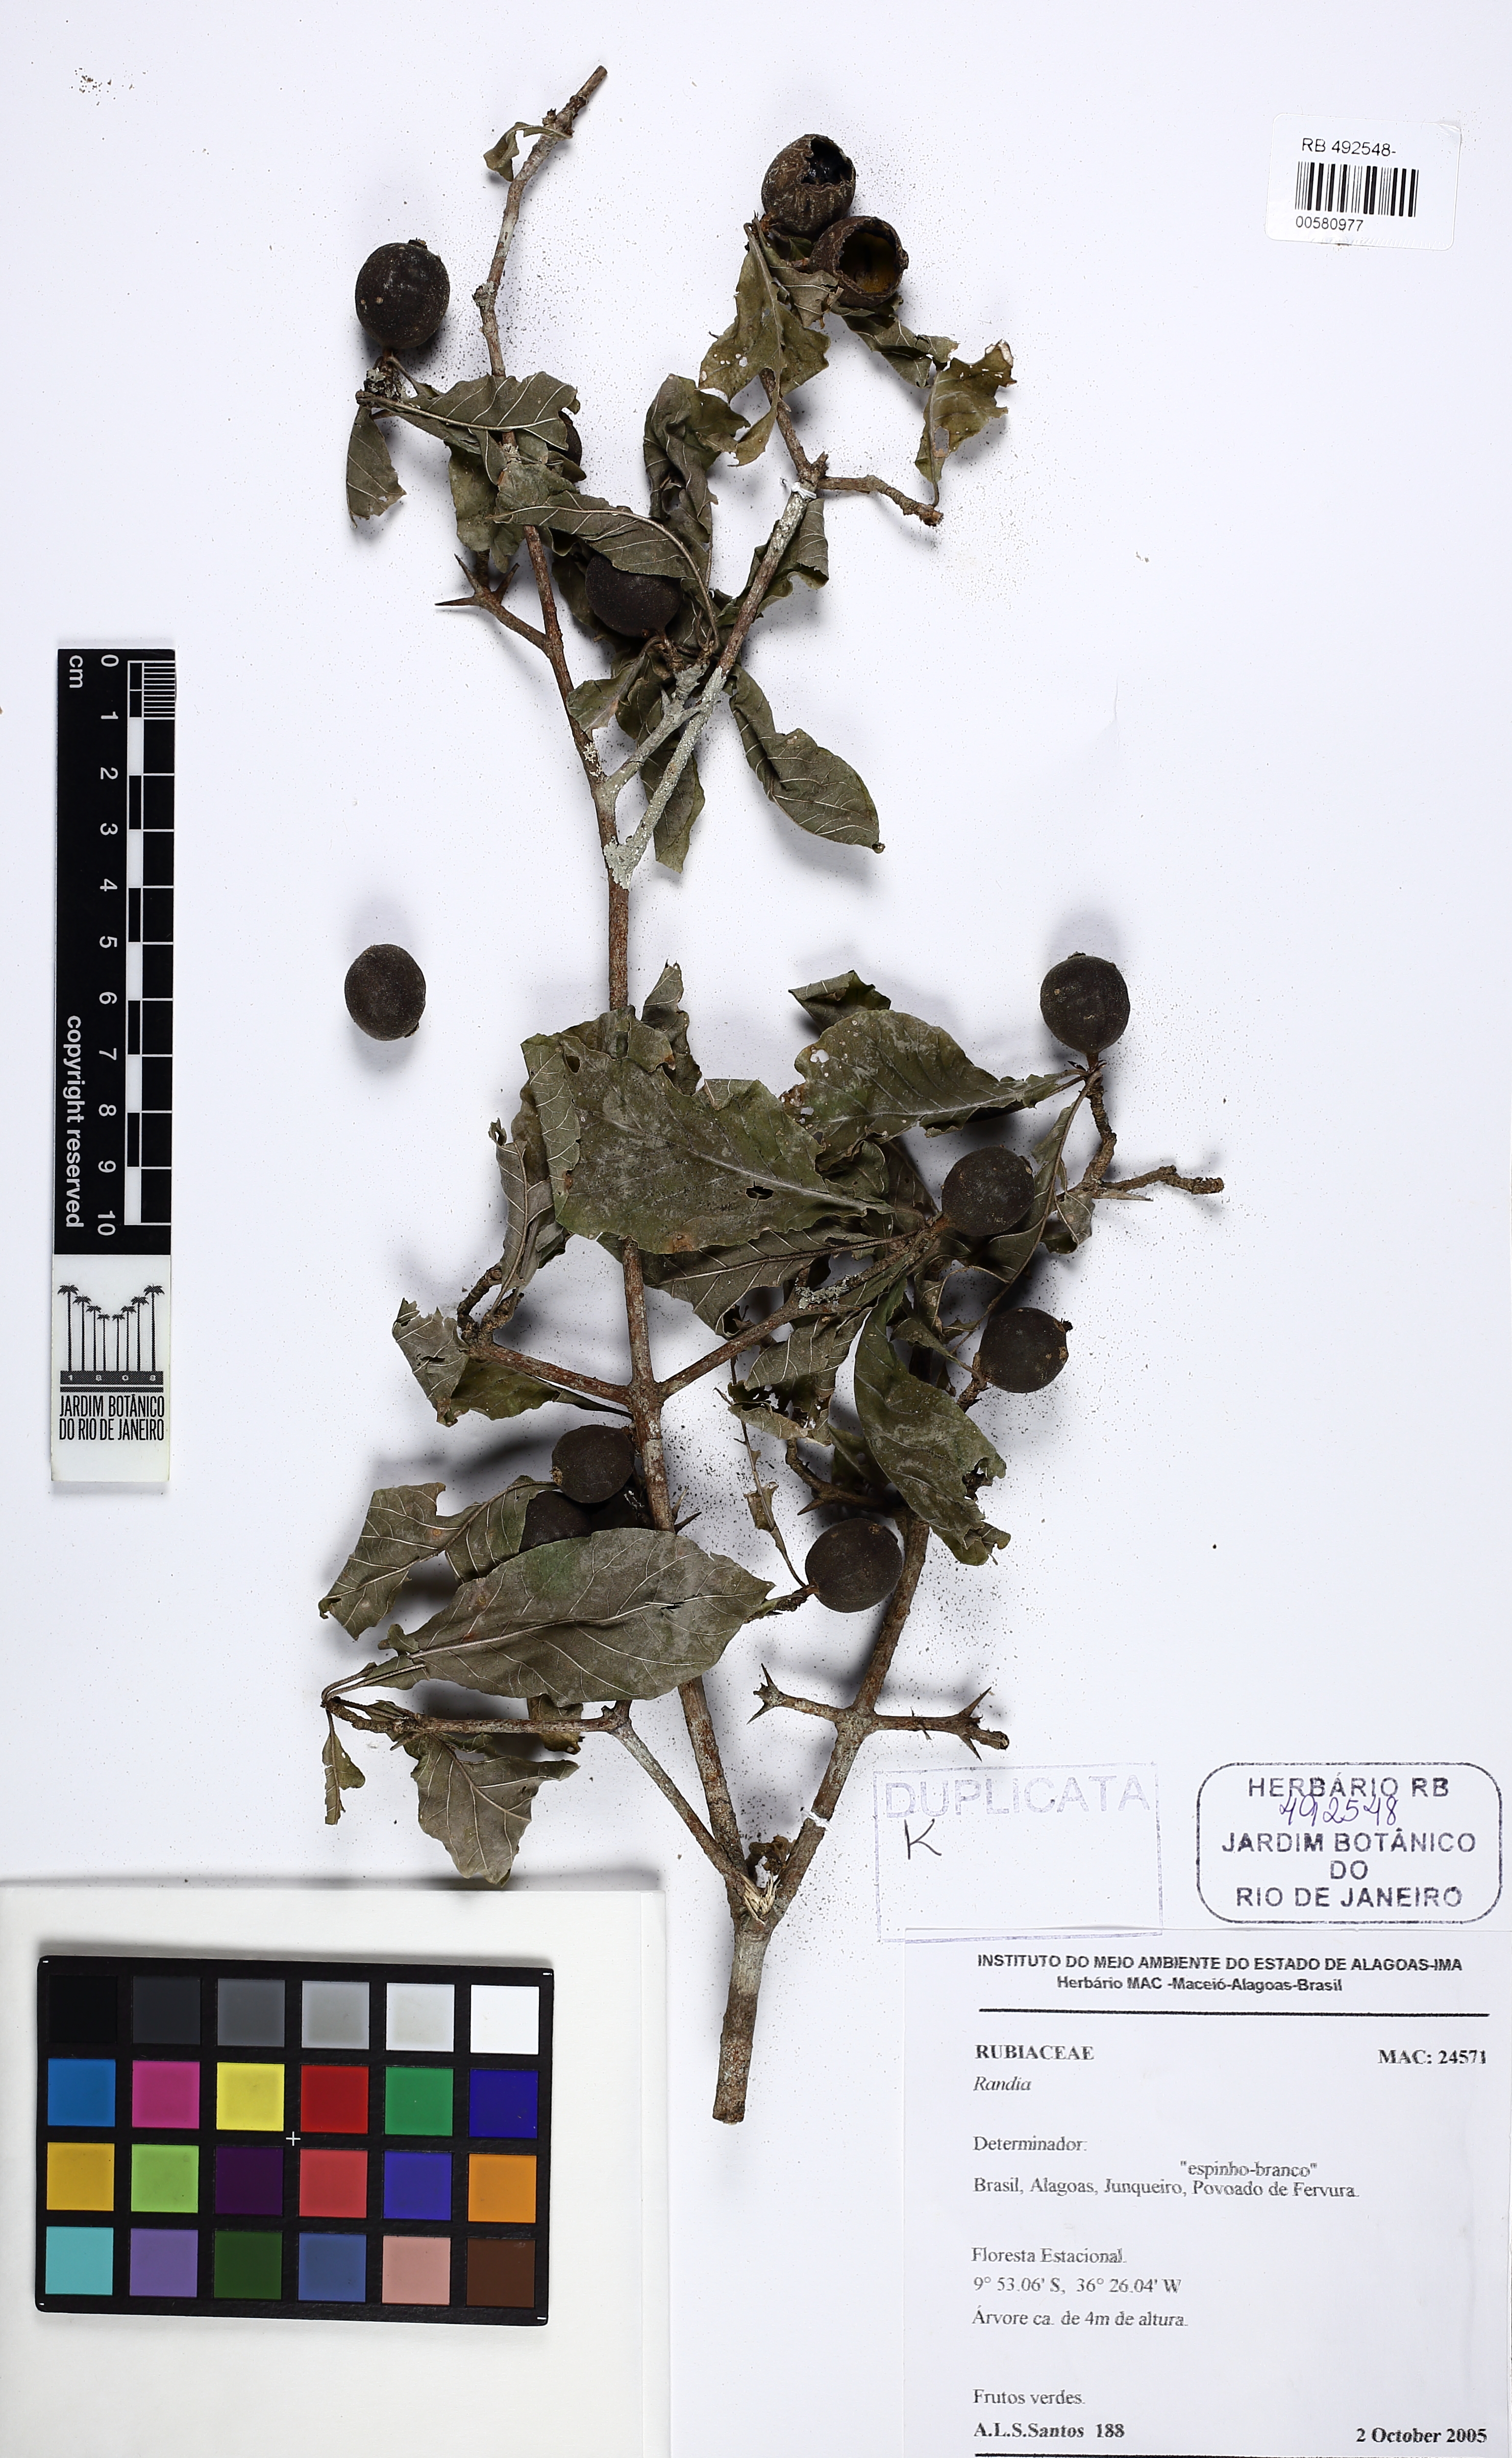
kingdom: Plantae
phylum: Tracheophyta
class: Magnoliopsida
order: Gentianales
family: Rubiaceae
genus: Randia
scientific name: Randia
